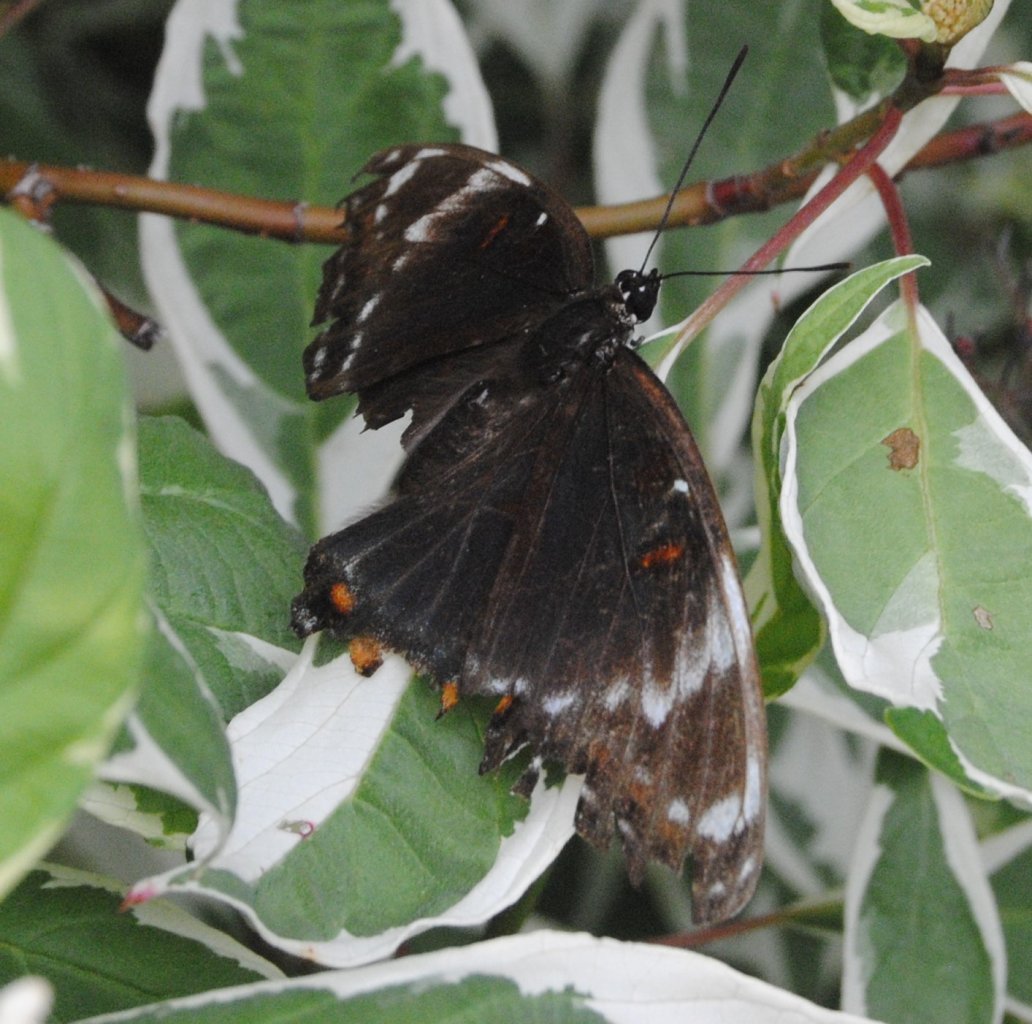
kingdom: Animalia
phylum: Arthropoda
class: Insecta
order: Lepidoptera
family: Nymphalidae
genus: Limenitis
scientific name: Limenitis
